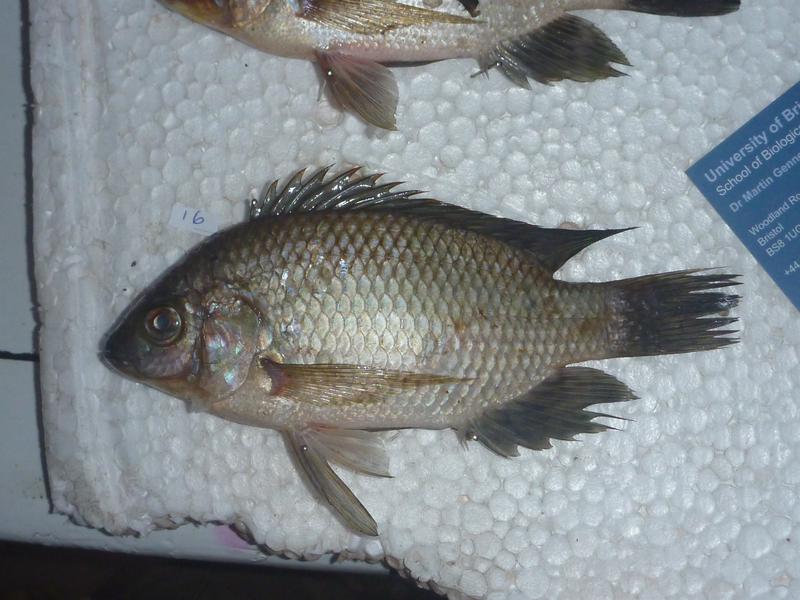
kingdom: Animalia
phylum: Chordata
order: Perciformes
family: Cichlidae
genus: Oreochromis
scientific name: Oreochromis upembae
